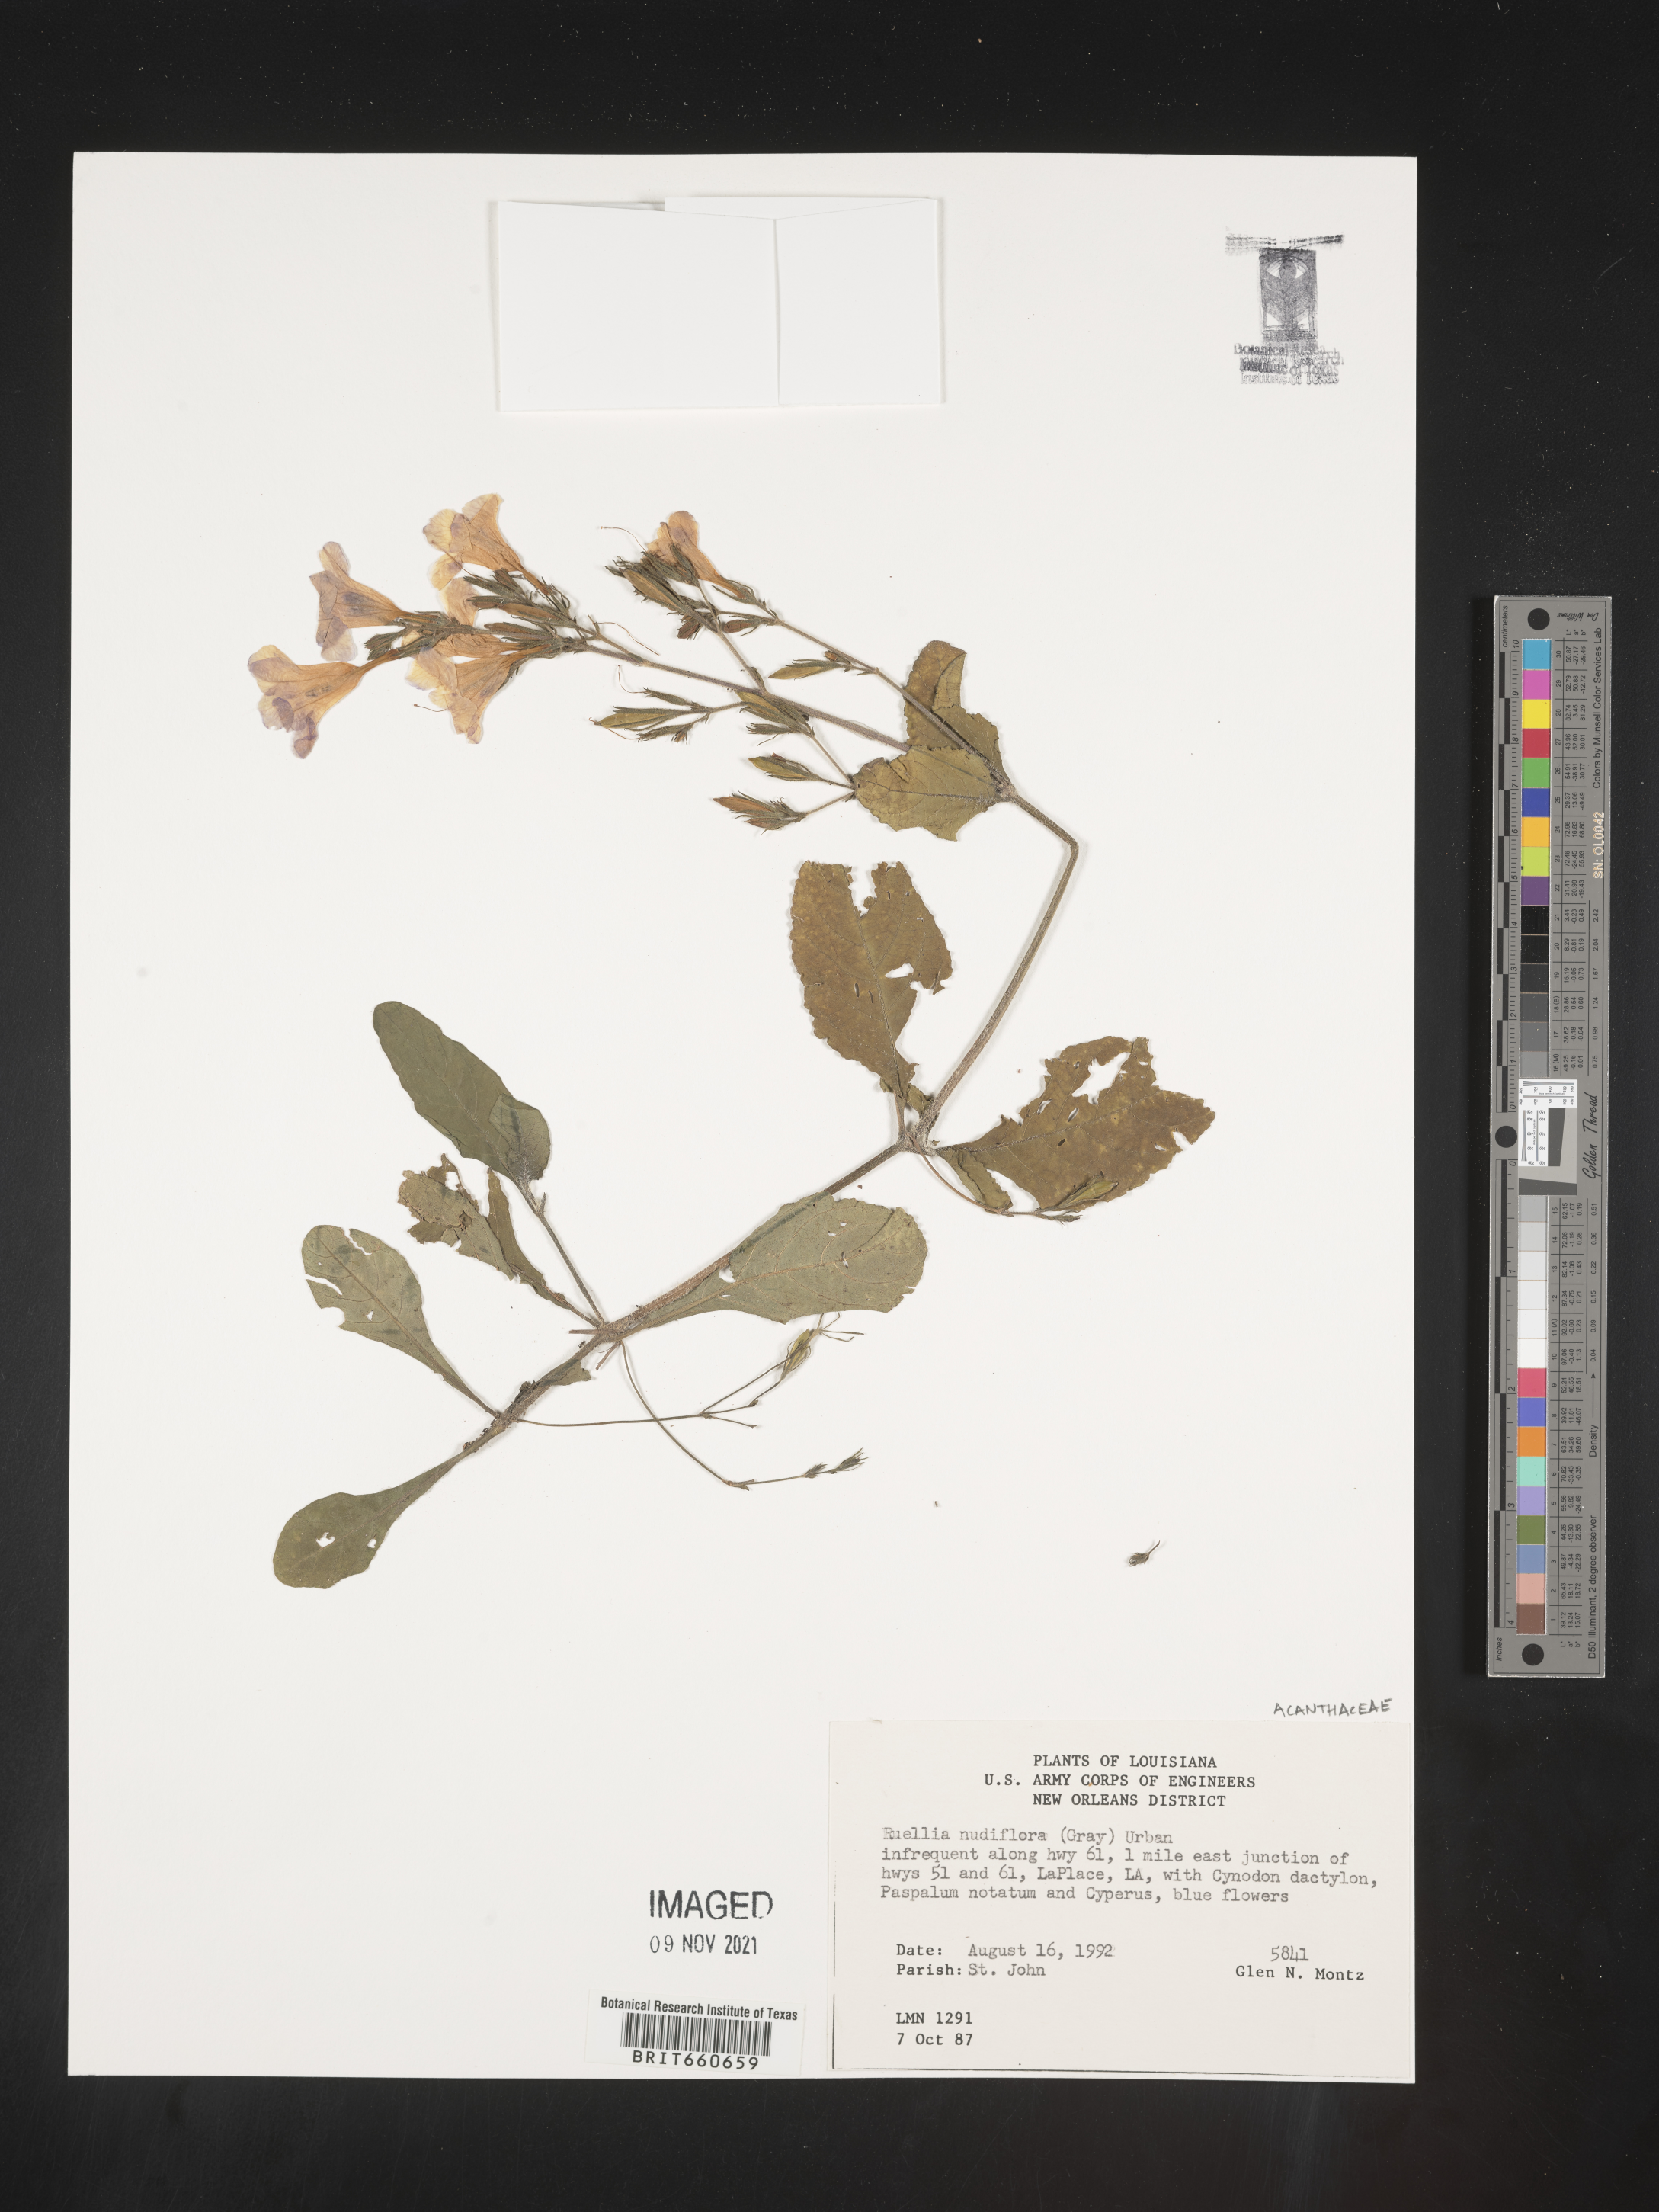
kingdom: Plantae
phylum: Tracheophyta
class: Magnoliopsida
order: Lamiales
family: Acanthaceae
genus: Ruellia
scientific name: Ruellia
